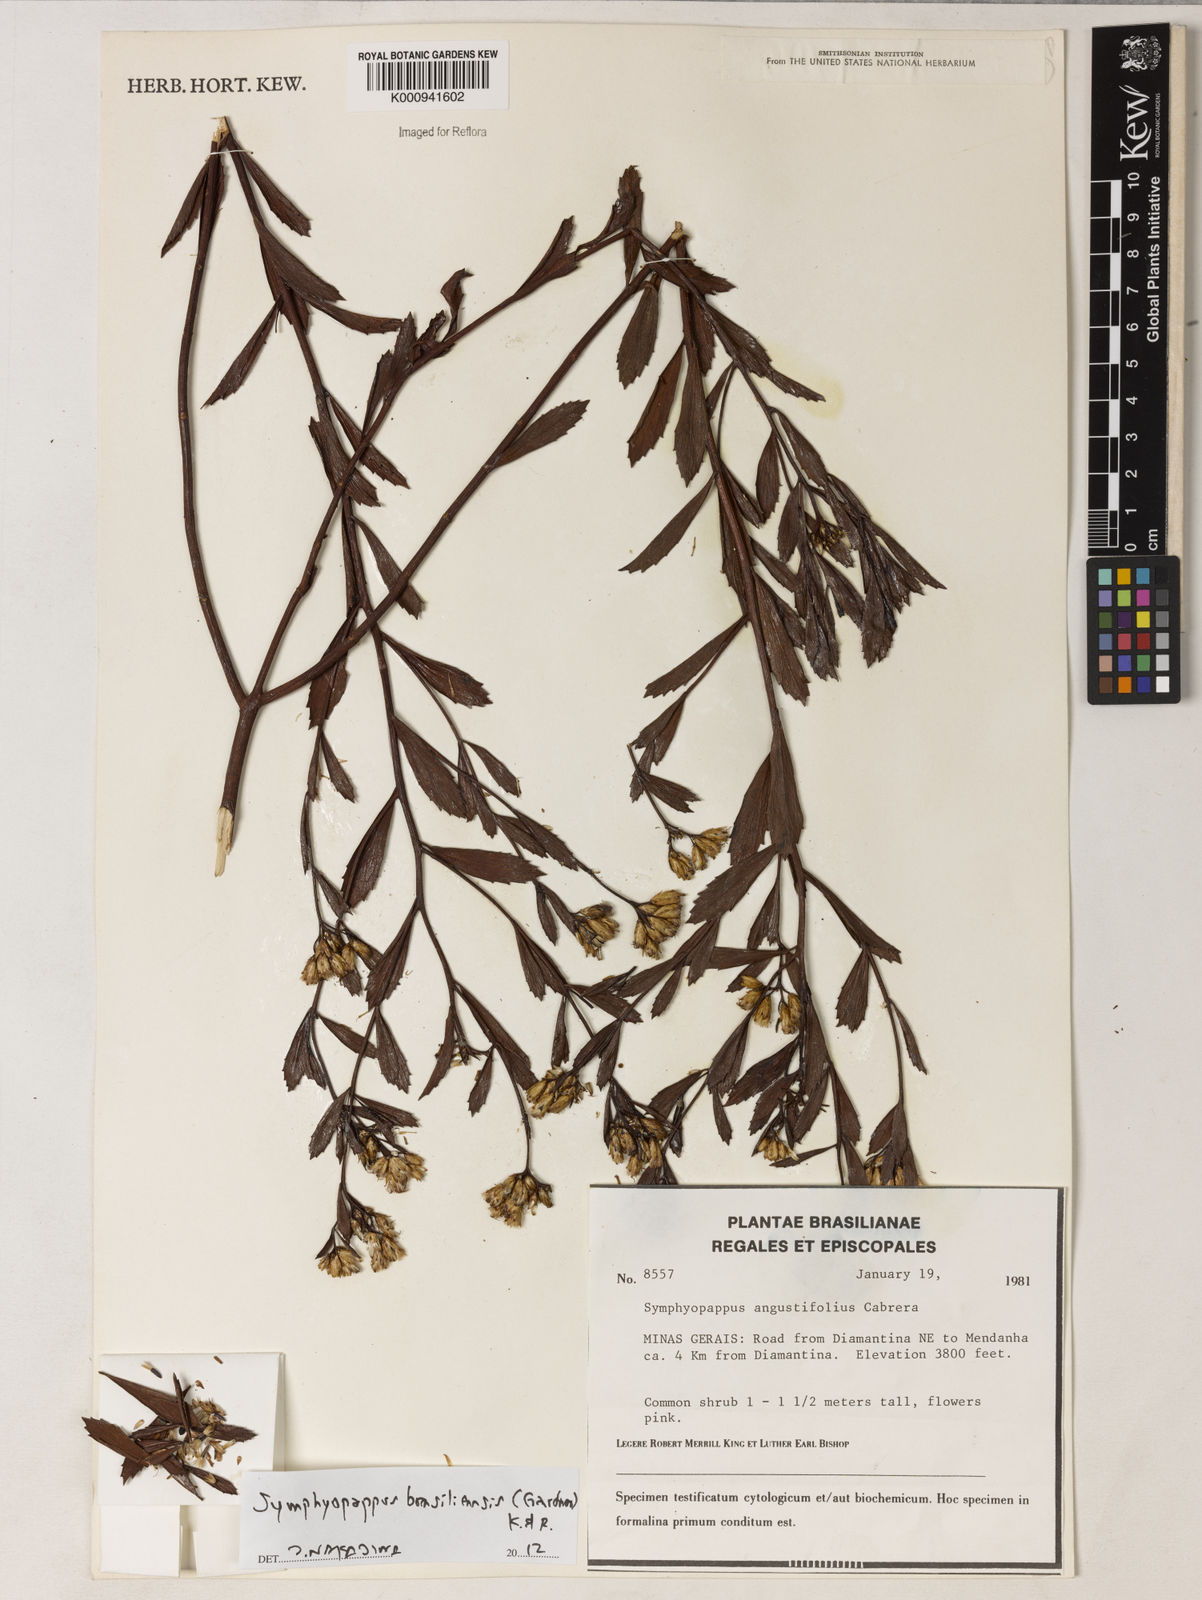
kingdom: Plantae
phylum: Tracheophyta
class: Magnoliopsida
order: Asterales
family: Asteraceae
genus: Symphyopappus
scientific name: Symphyopappus brasiliensis
